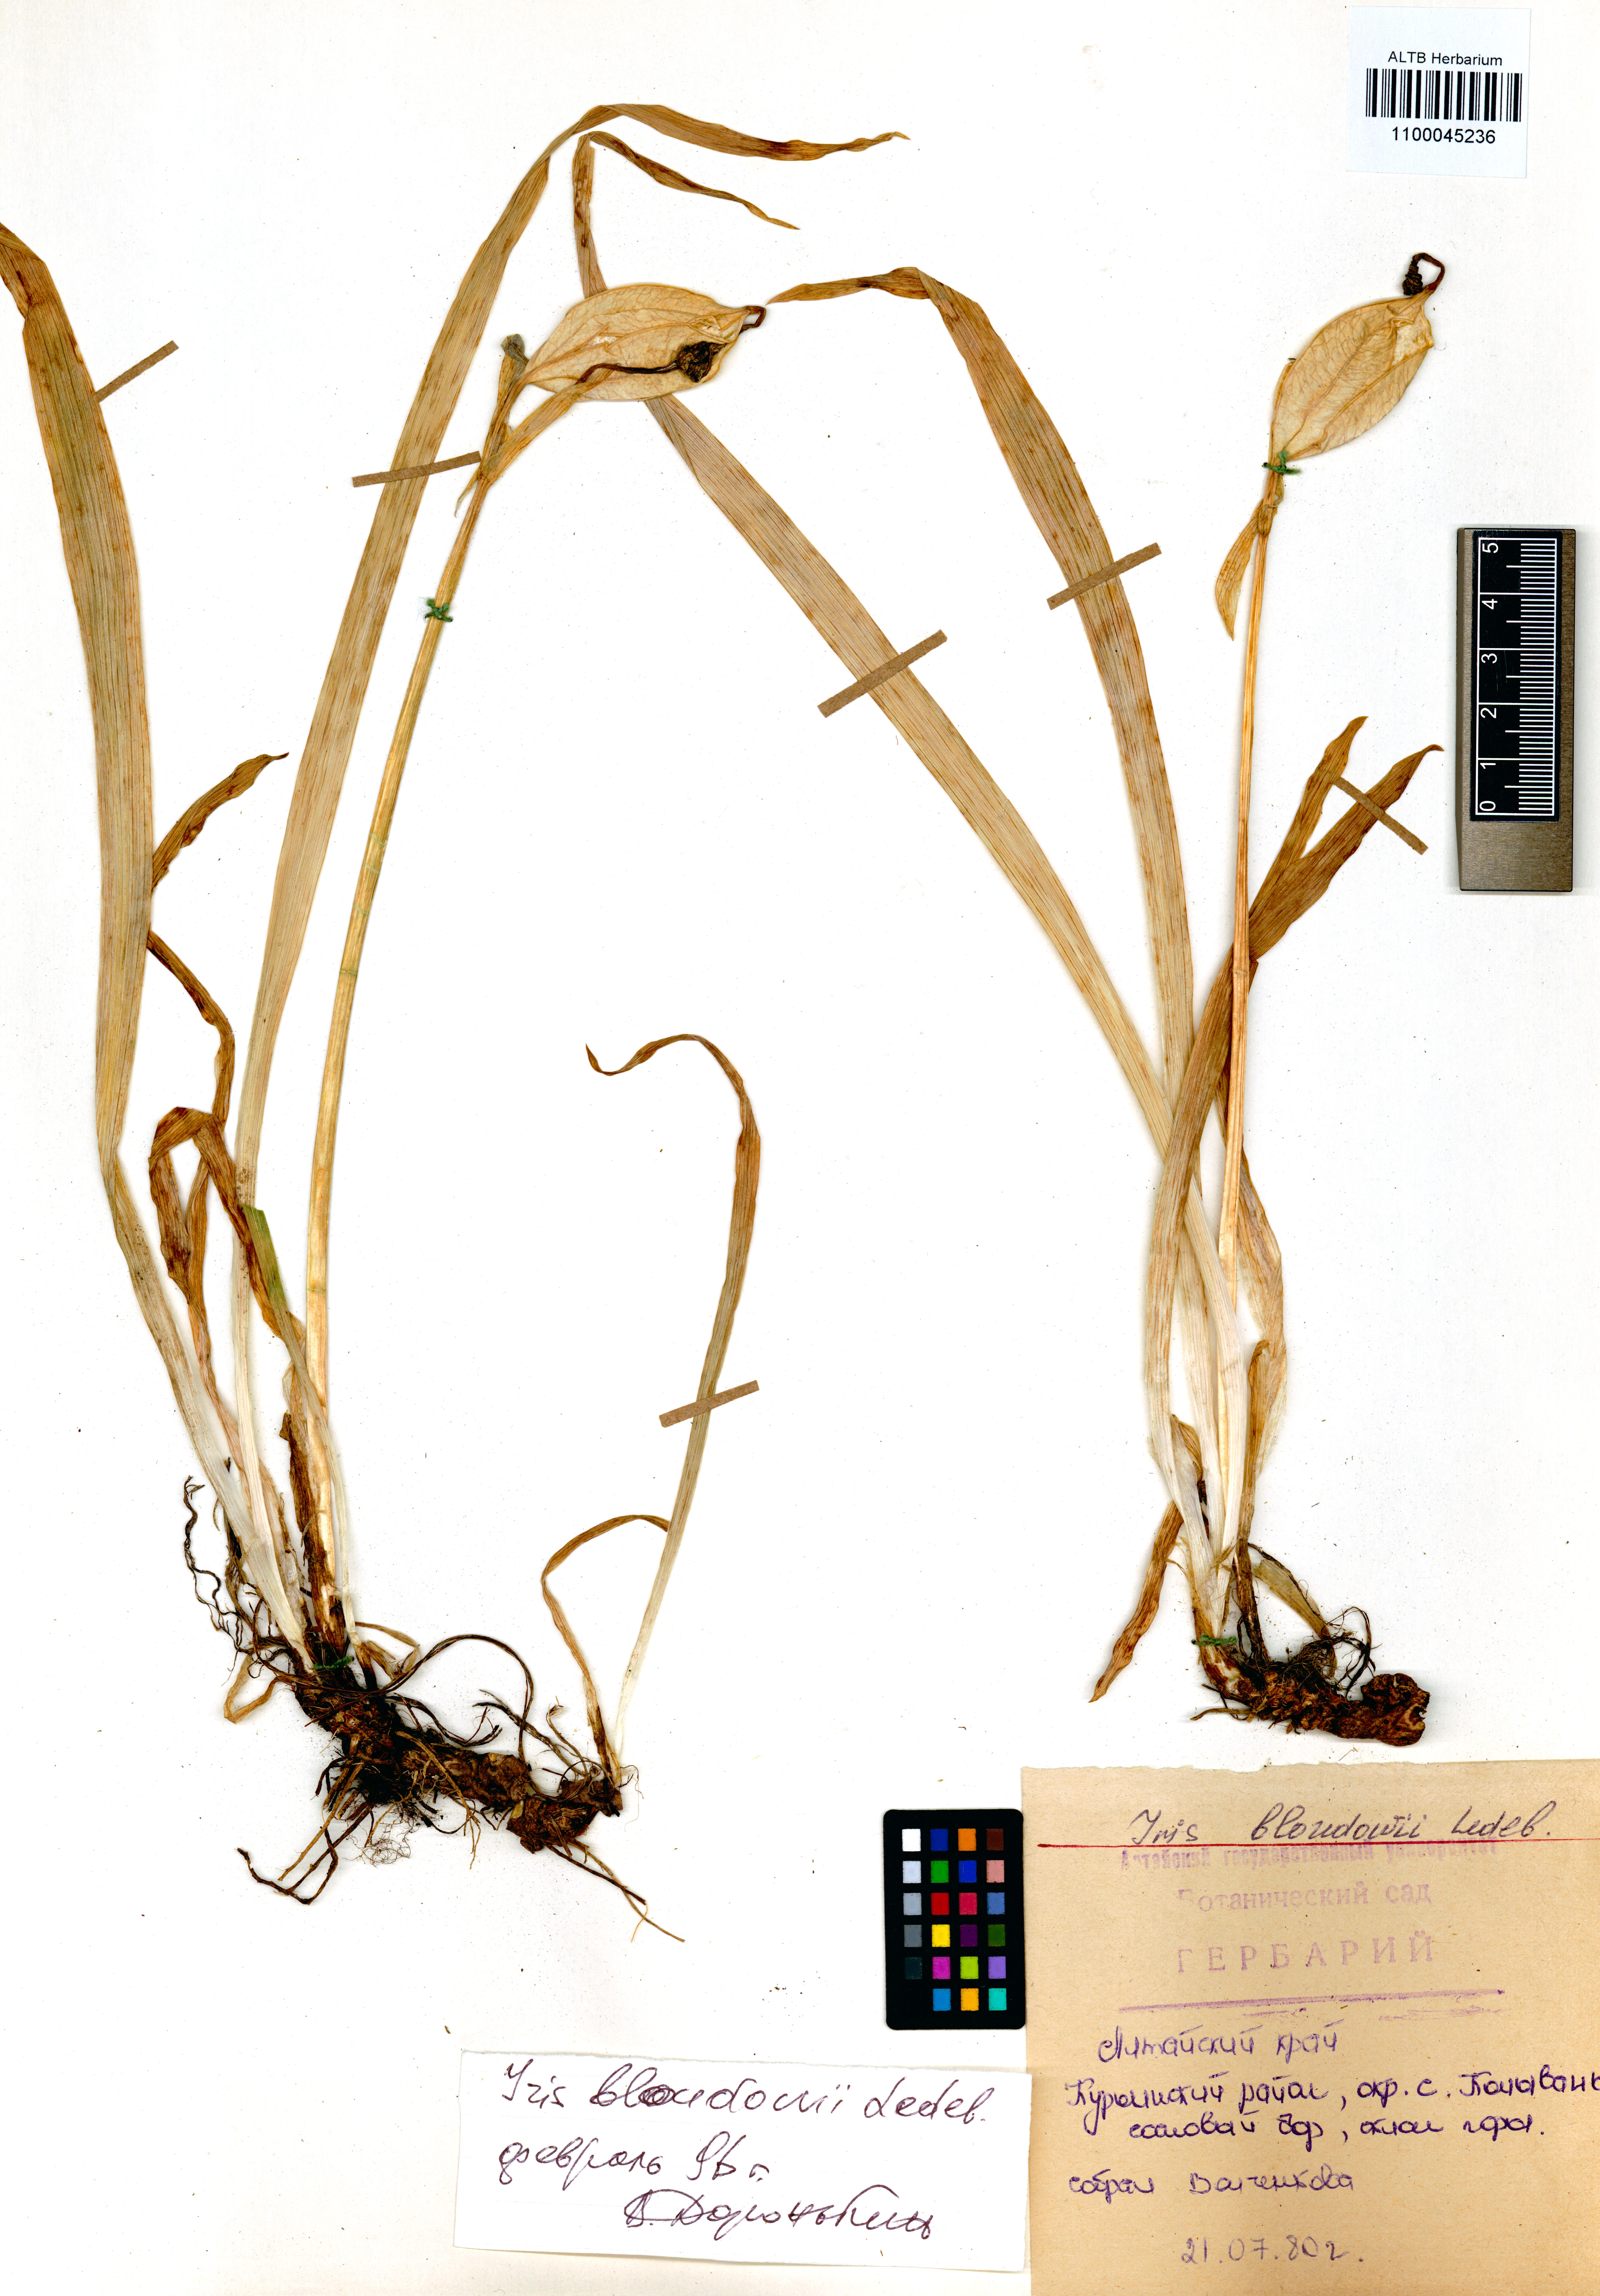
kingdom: Plantae
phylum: Tracheophyta
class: Liliopsida
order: Asparagales
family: Iridaceae
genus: Iris
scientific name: Iris bloudowii
